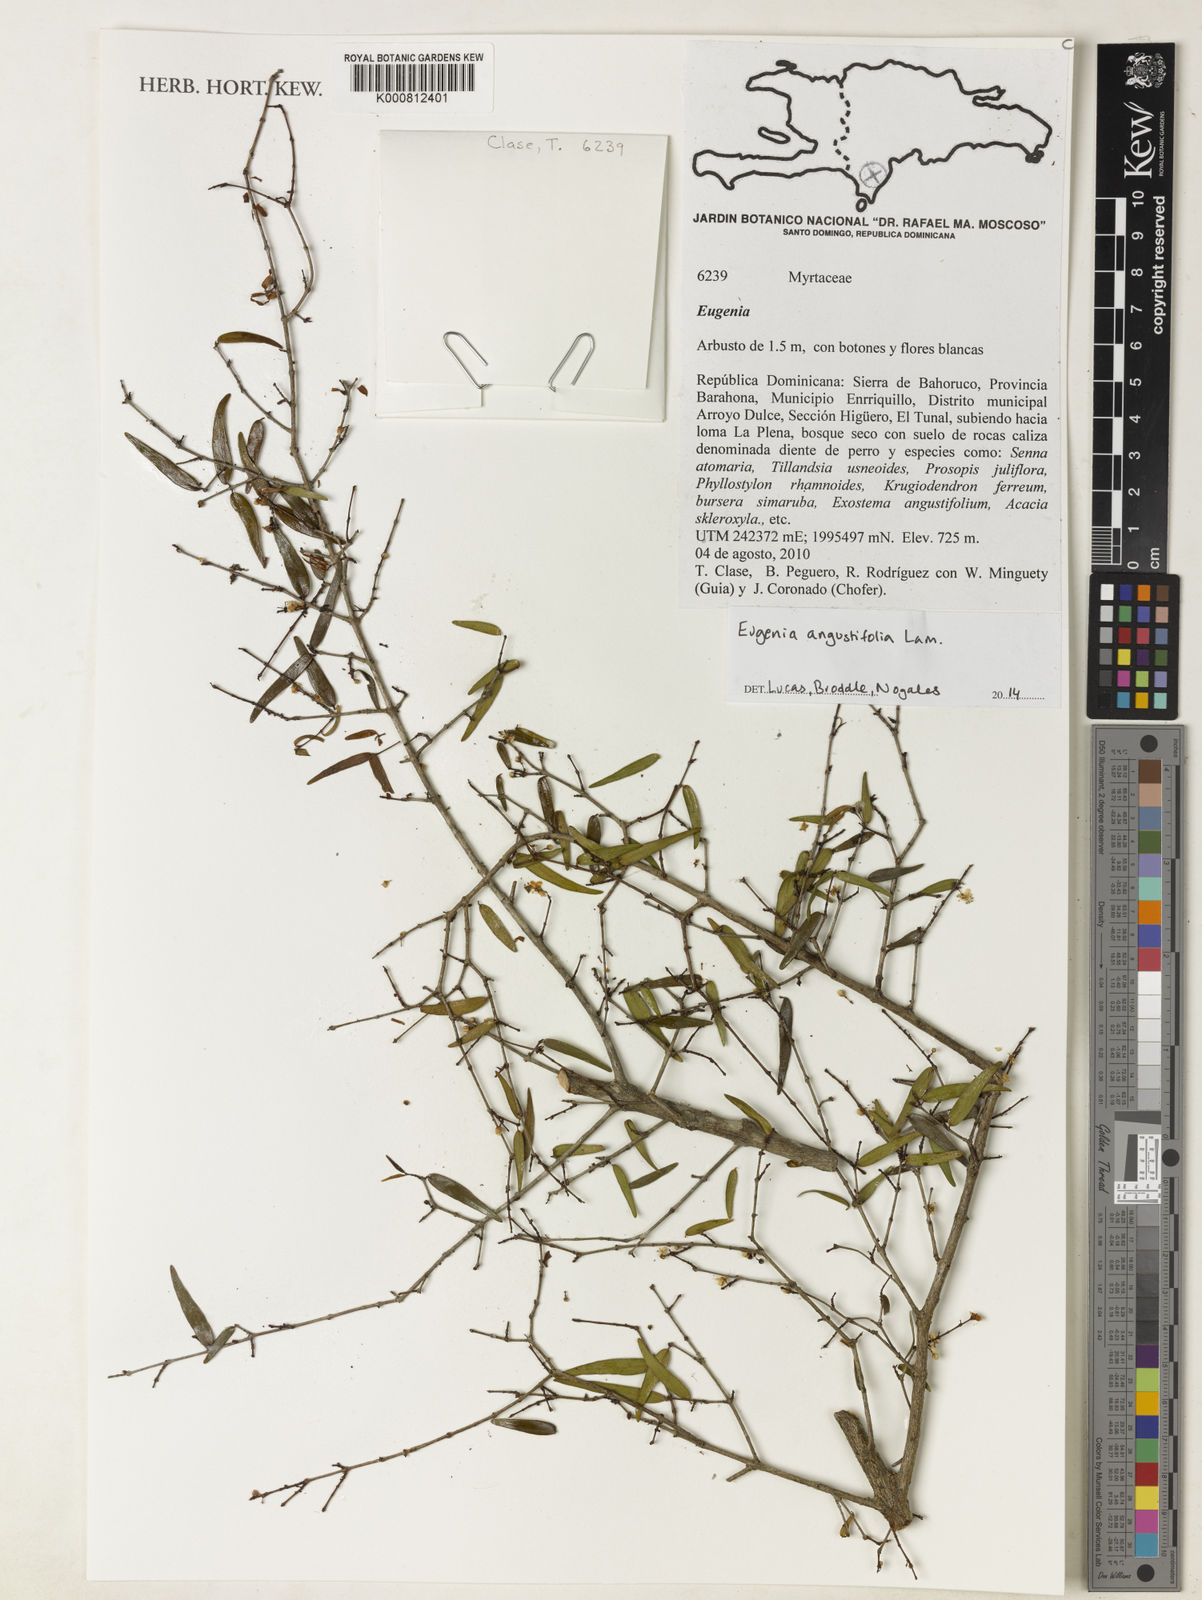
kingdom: Plantae
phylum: Tracheophyta
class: Magnoliopsida
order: Myrtales
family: Myrtaceae
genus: Eugenia
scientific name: Eugenia pomifera
